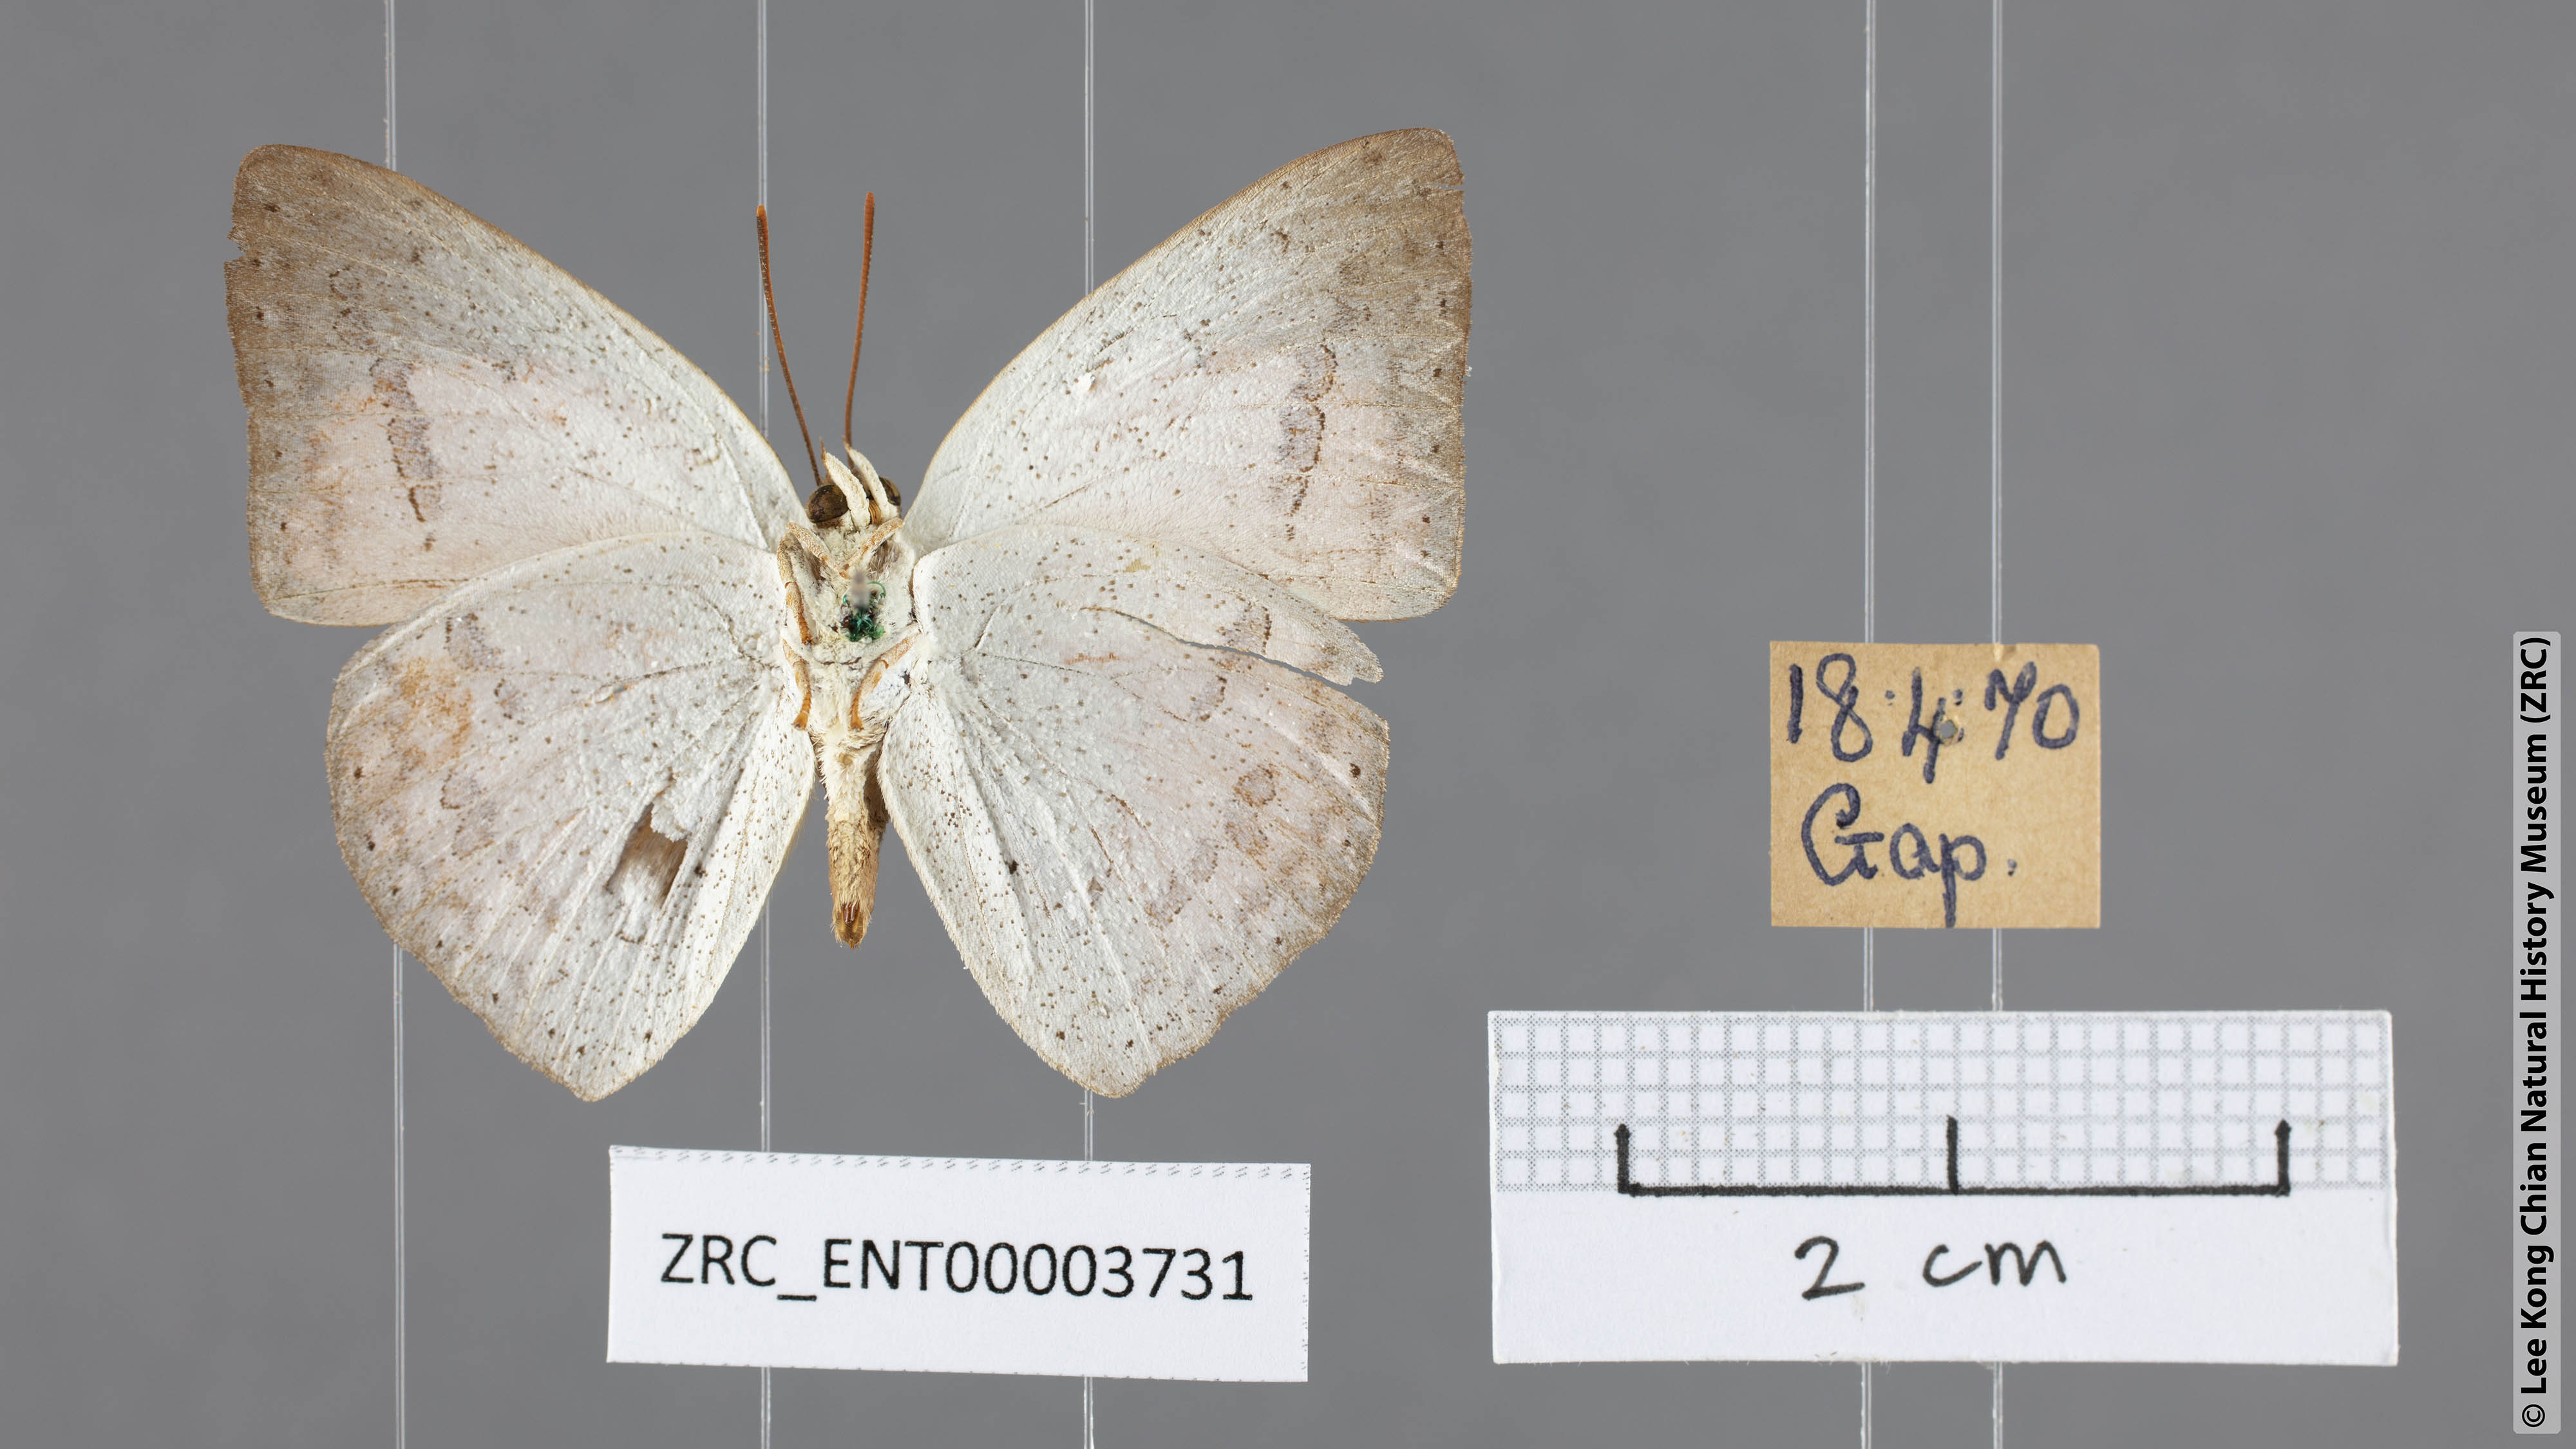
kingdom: Animalia
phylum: Arthropoda
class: Insecta
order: Lepidoptera
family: Lycaenidae
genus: Curetis
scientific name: Curetis felderi
